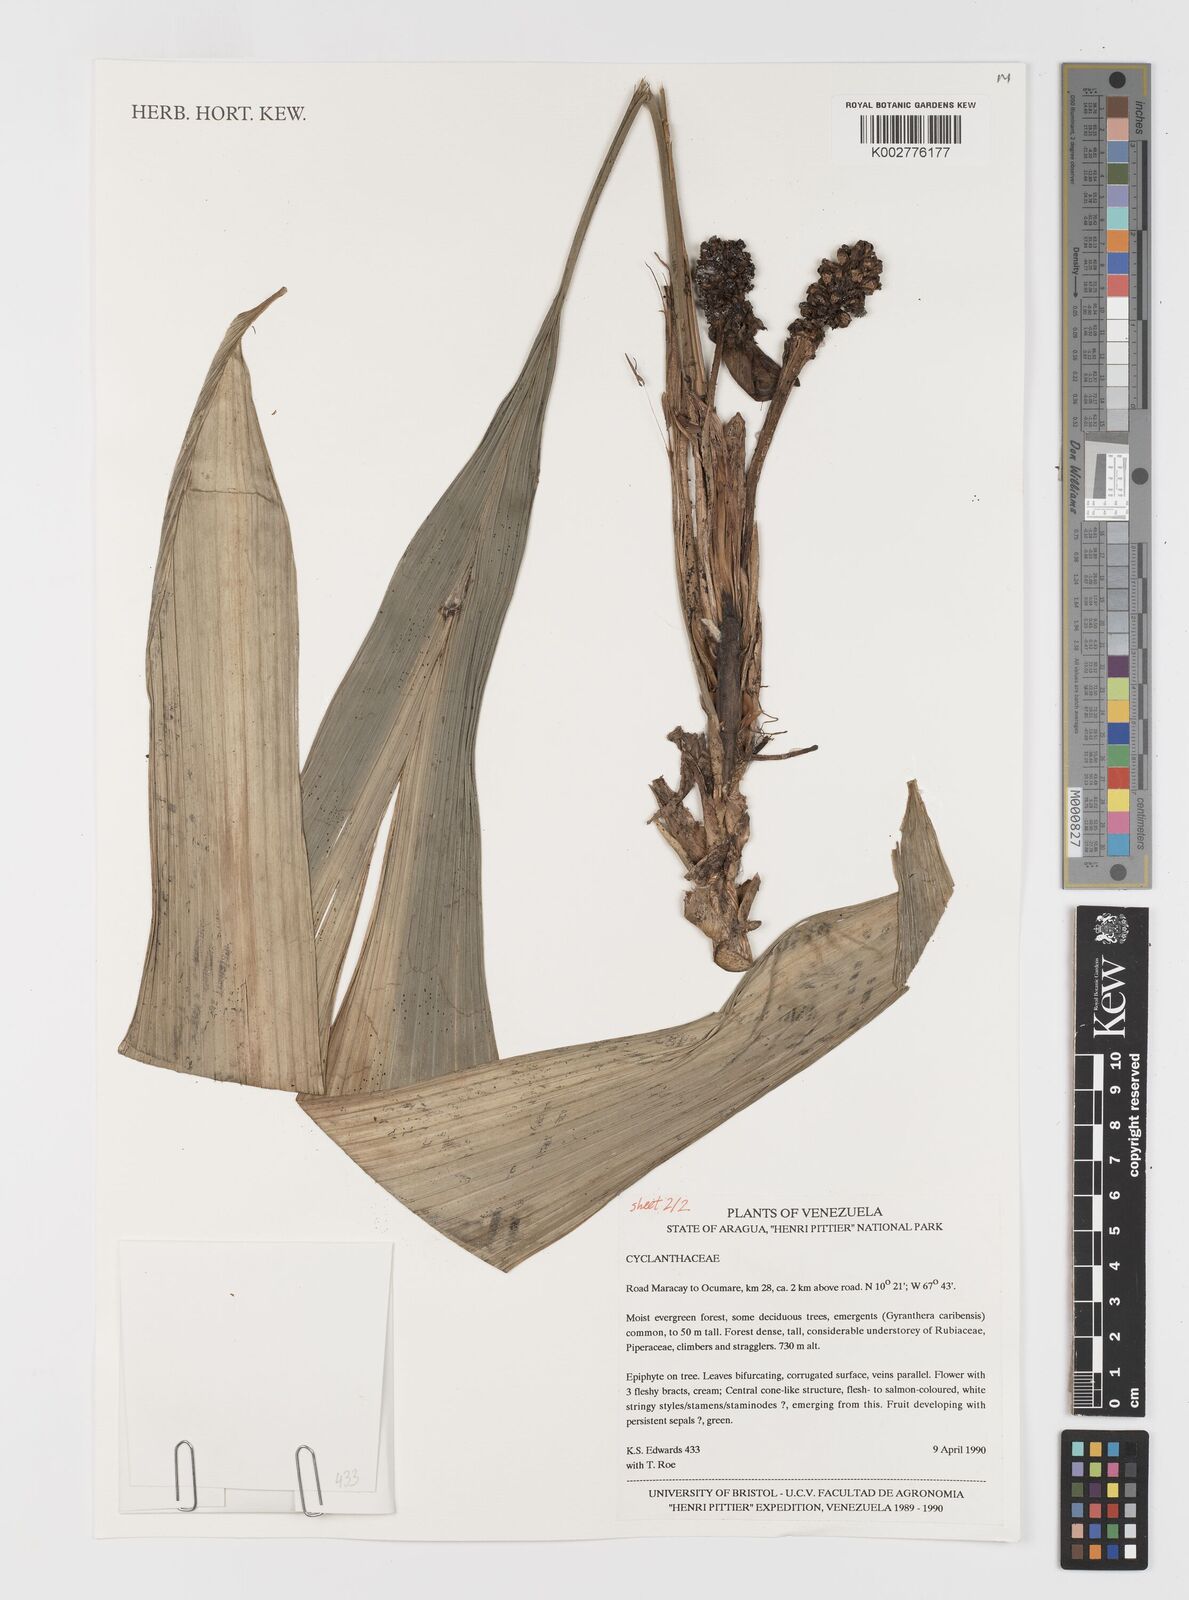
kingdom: Plantae
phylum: Tracheophyta
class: Liliopsida
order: Pandanales
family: Cyclanthaceae
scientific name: Cyclanthaceae
